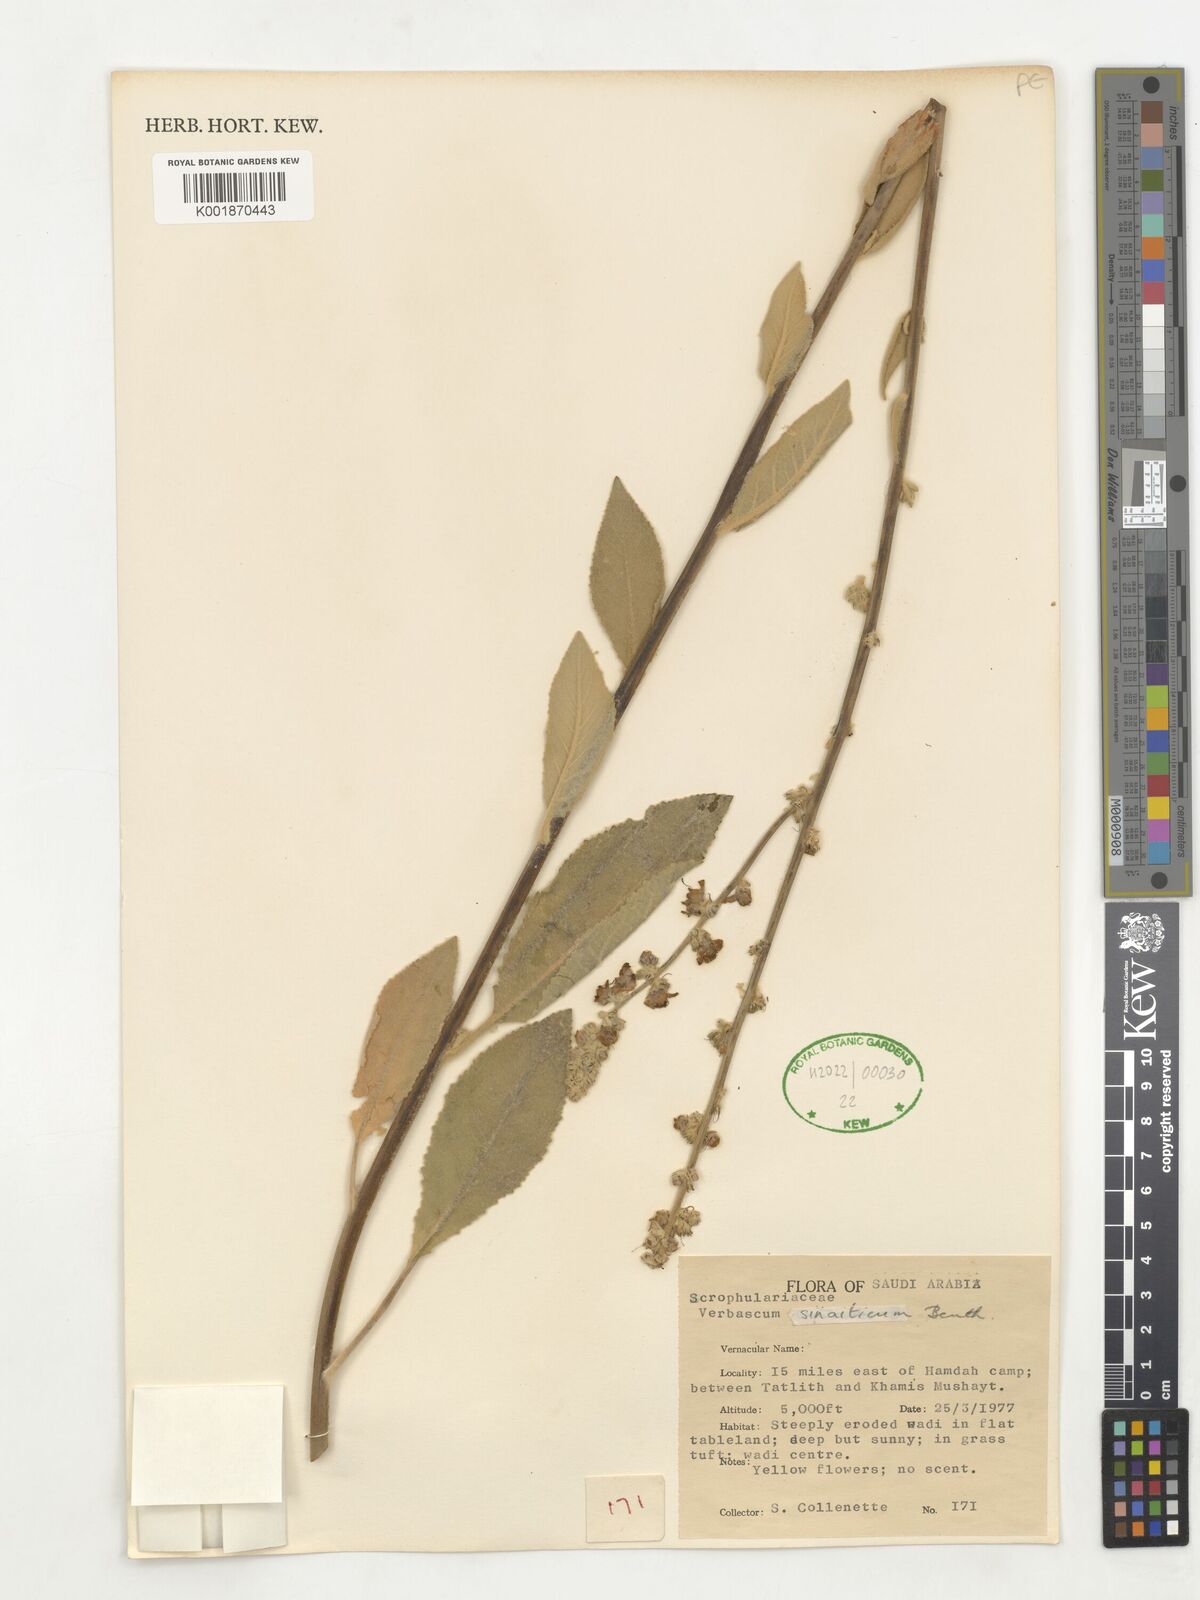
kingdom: Plantae
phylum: Tracheophyta
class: Magnoliopsida
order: Lamiales
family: Scrophulariaceae
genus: Verbascum
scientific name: Verbascum sinaiticum
